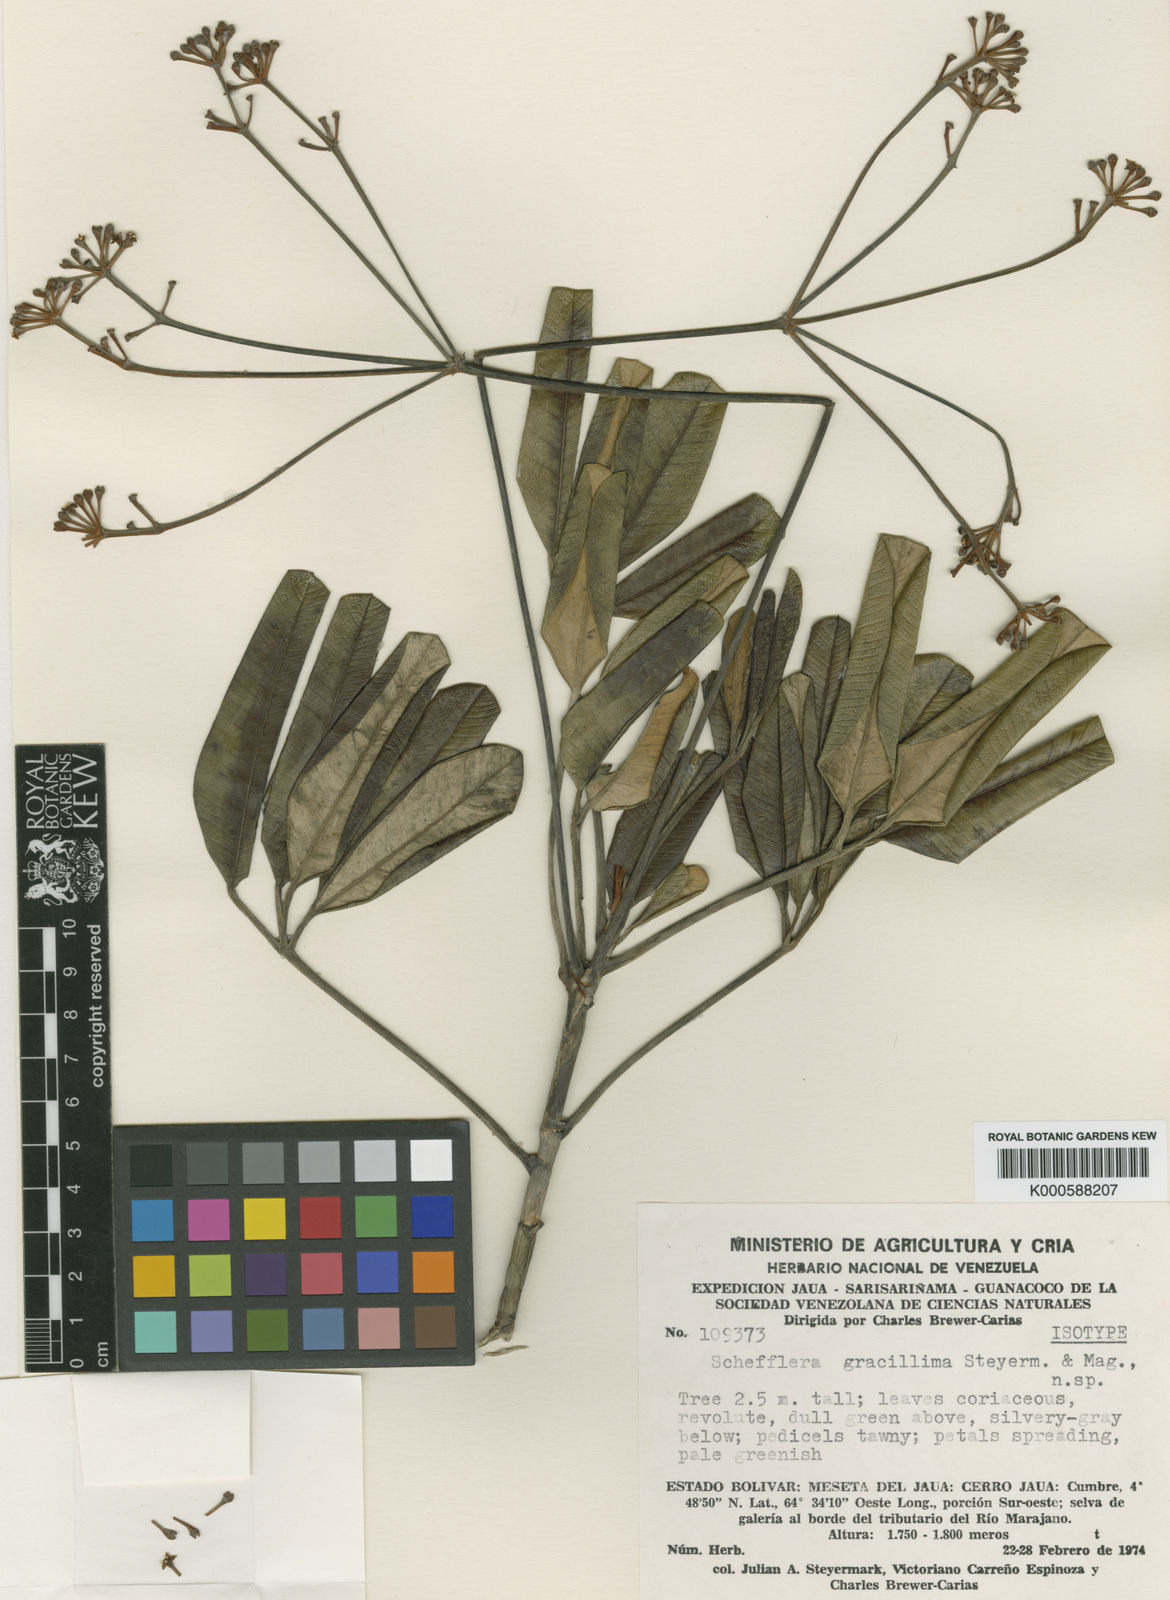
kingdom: Plantae
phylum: Tracheophyta
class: Magnoliopsida
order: Apiales
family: Araliaceae
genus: Crepinella
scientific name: Crepinella
